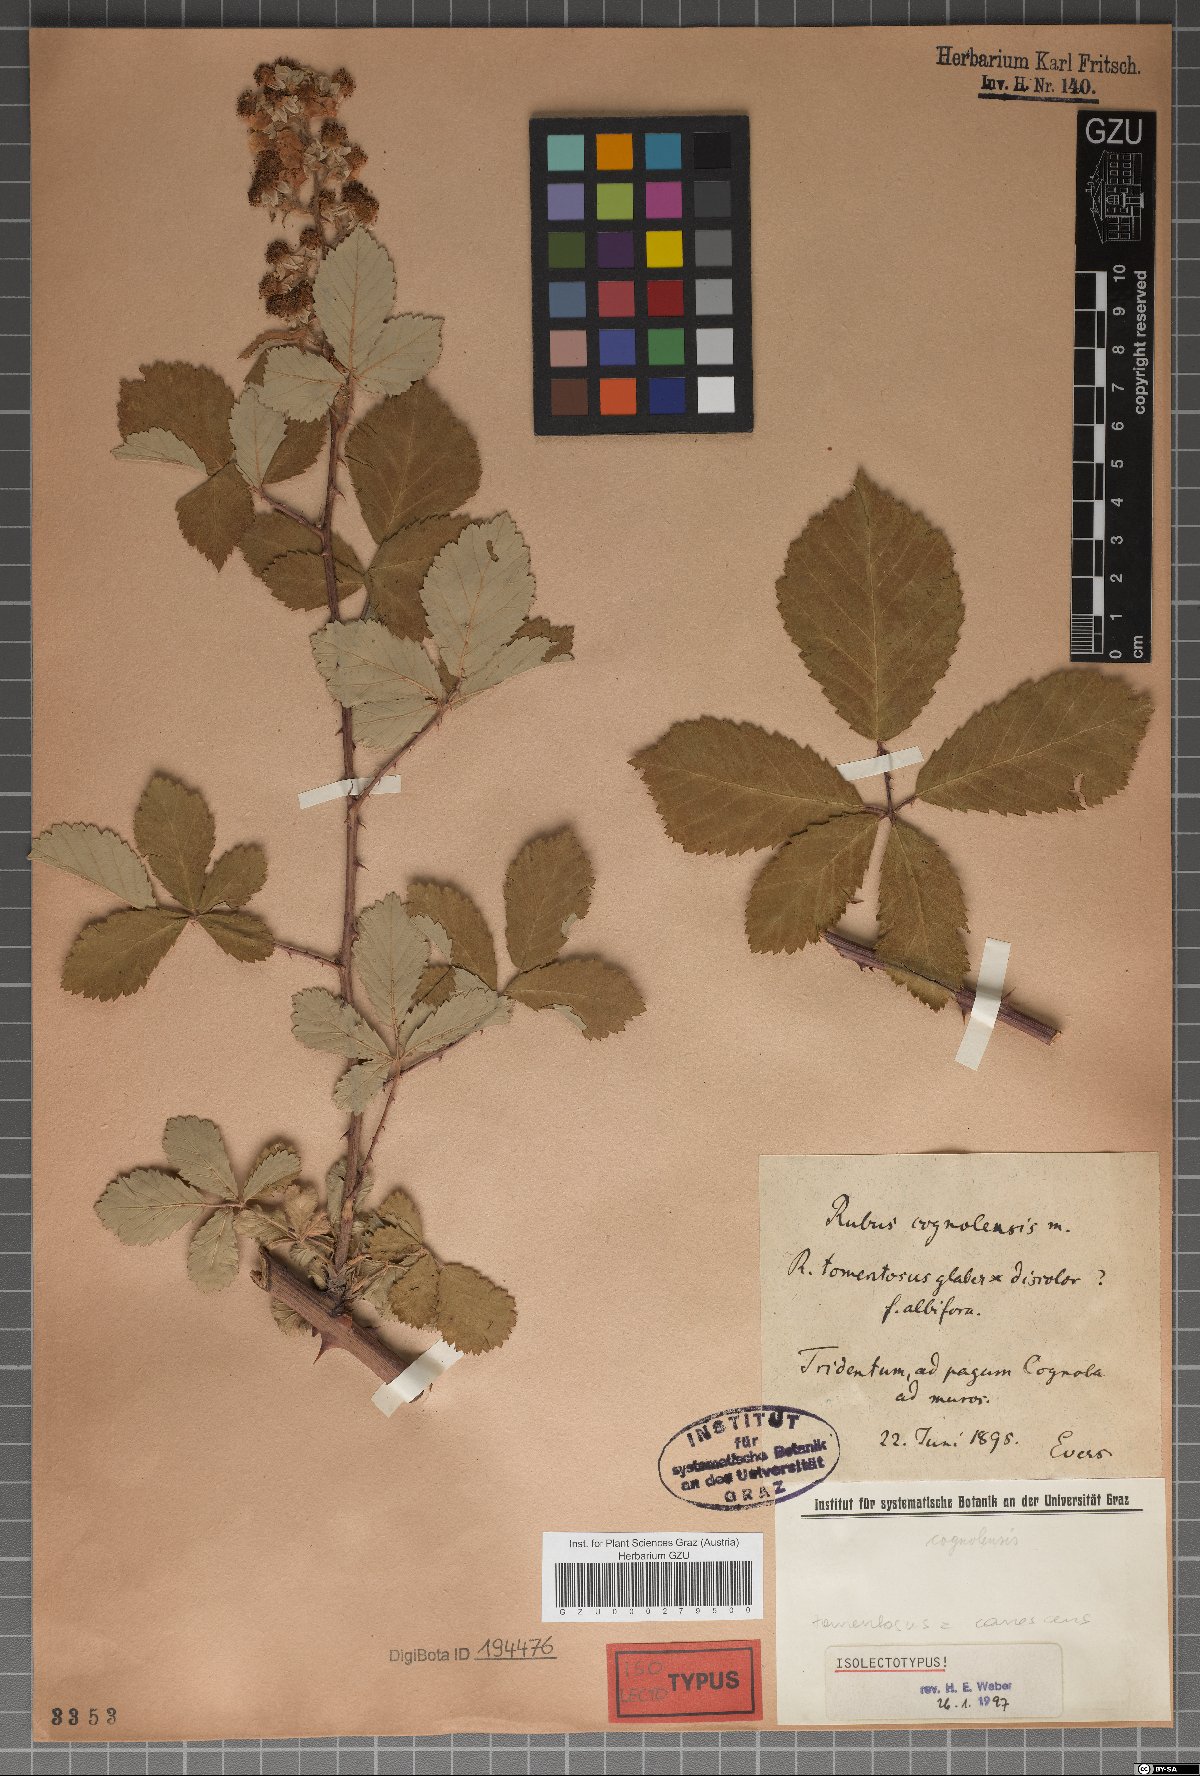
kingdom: Plantae
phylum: Tracheophyta
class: Magnoliopsida
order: Rosales
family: Rosaceae
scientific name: Rosaceae
